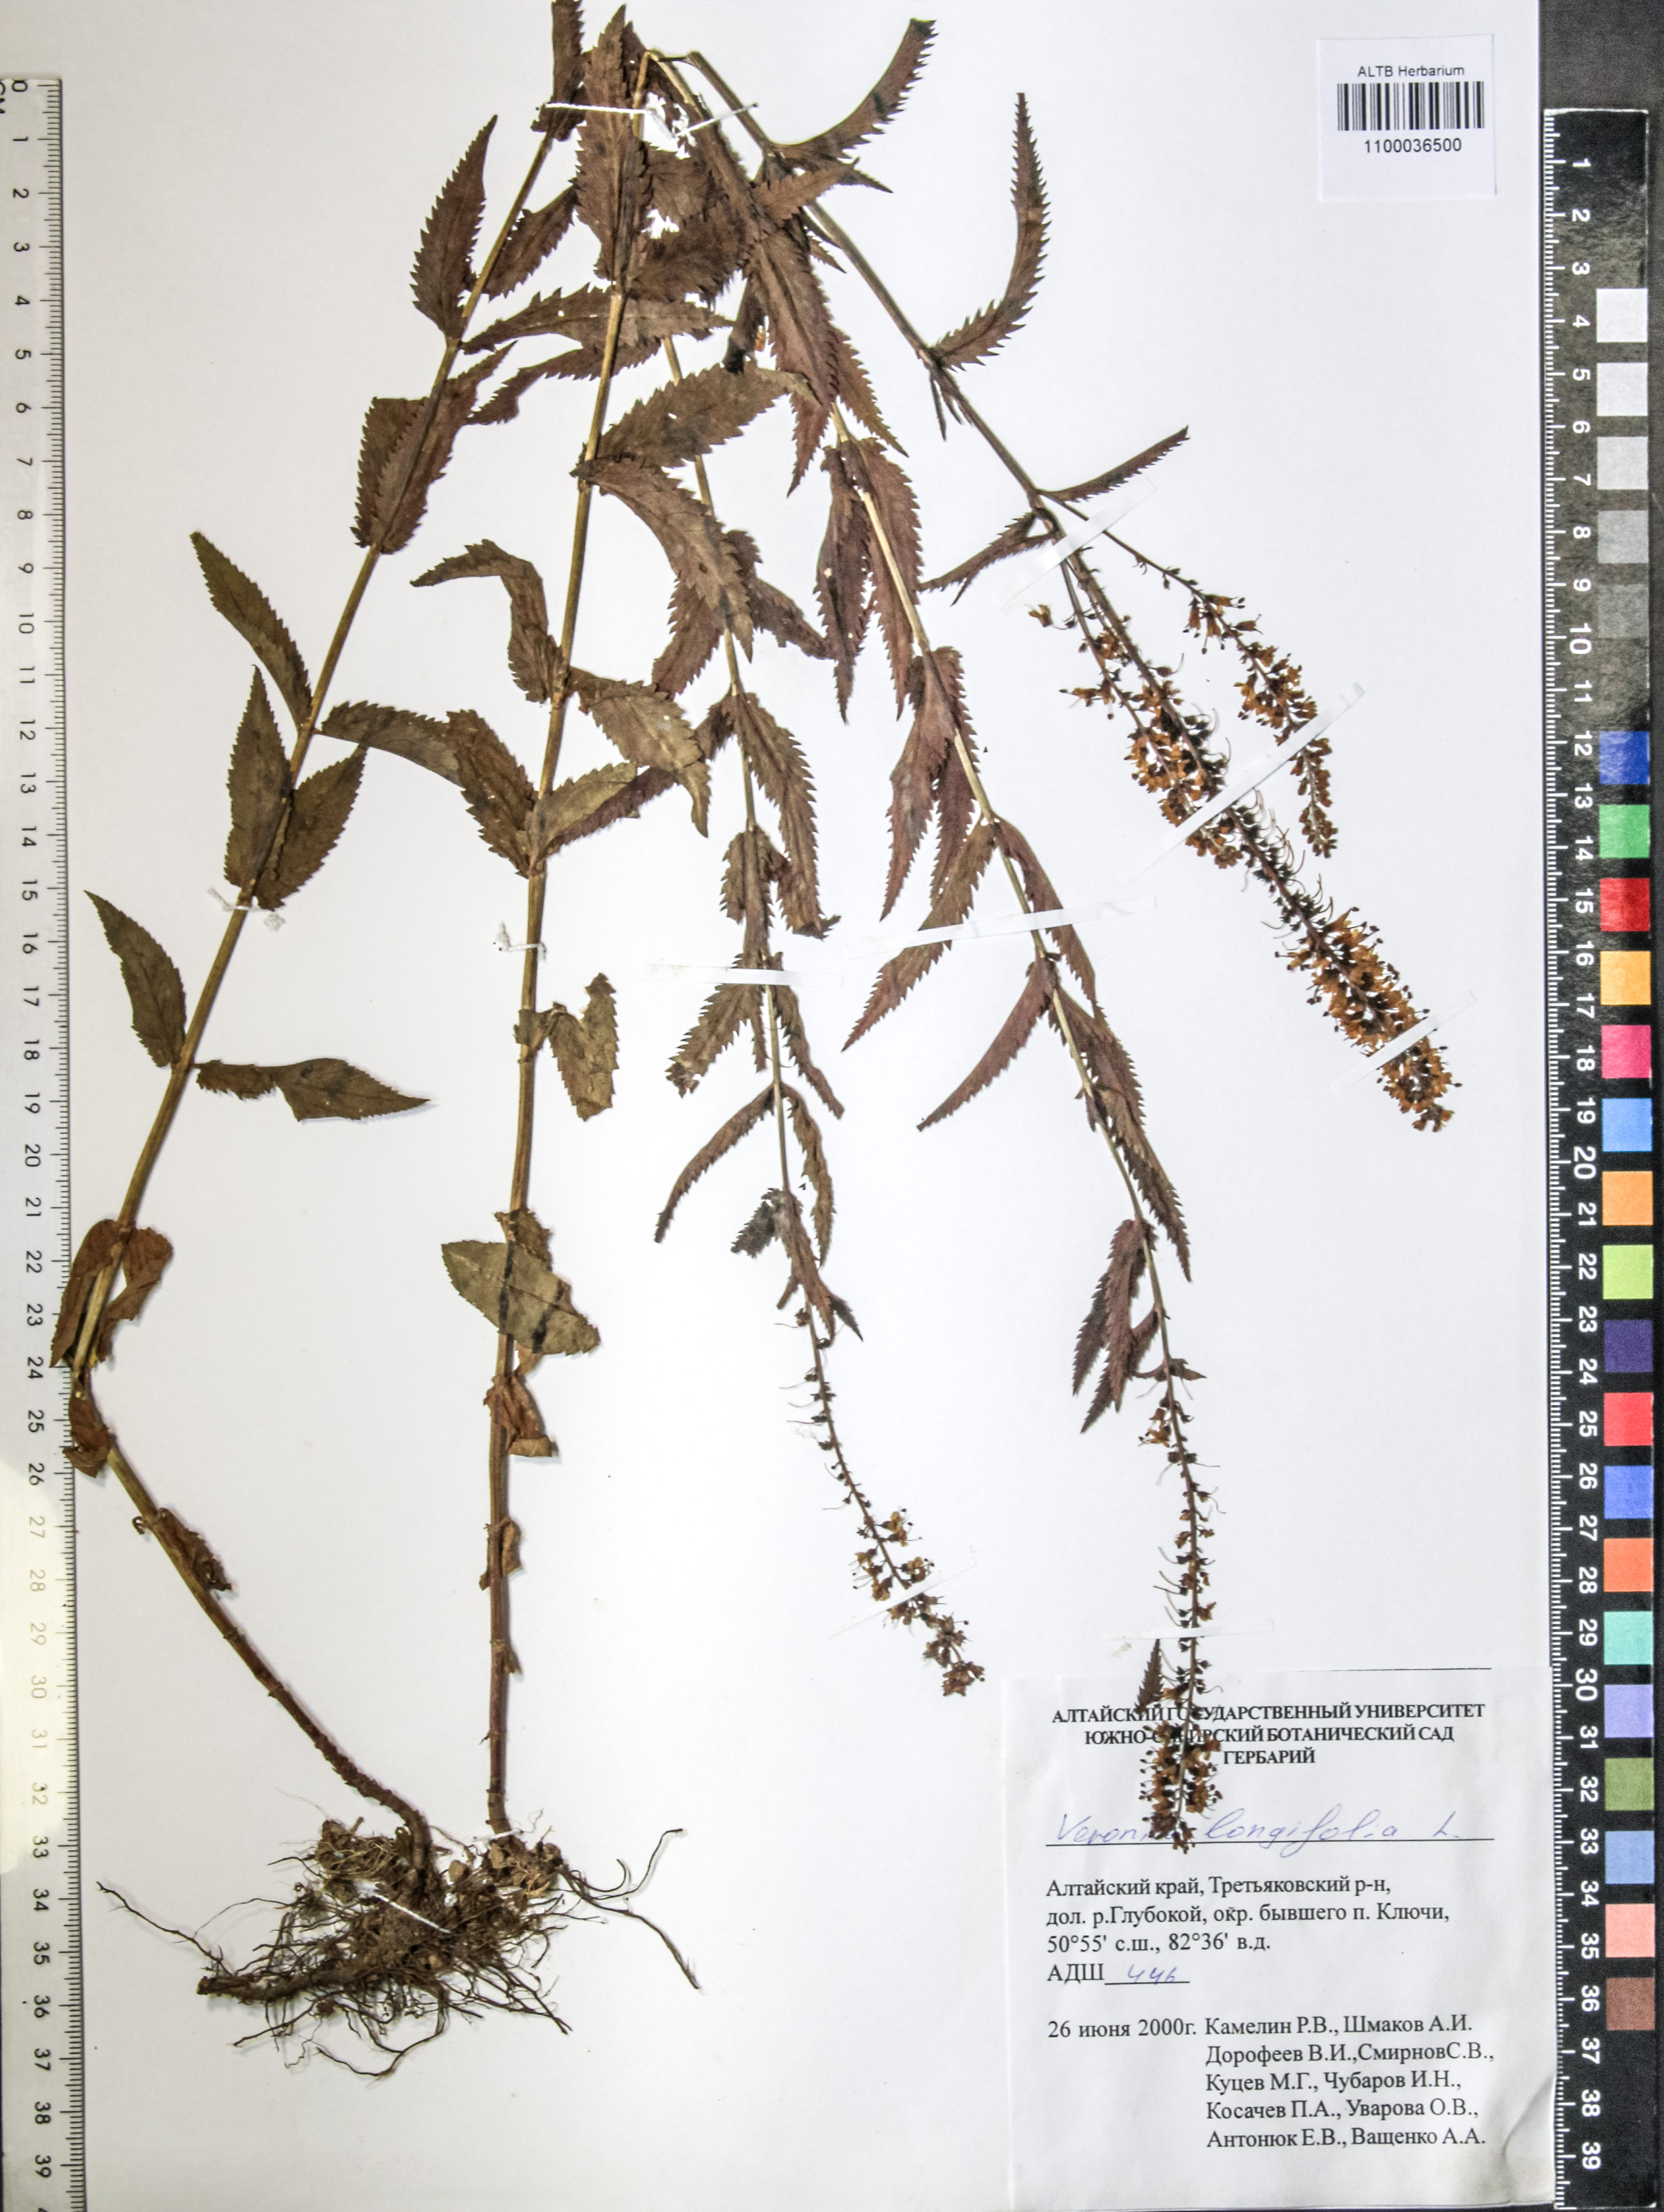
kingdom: Plantae
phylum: Tracheophyta
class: Magnoliopsida
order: Lamiales
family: Plantaginaceae
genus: Veronica
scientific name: Veronica longifolia
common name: Garden speedwell
